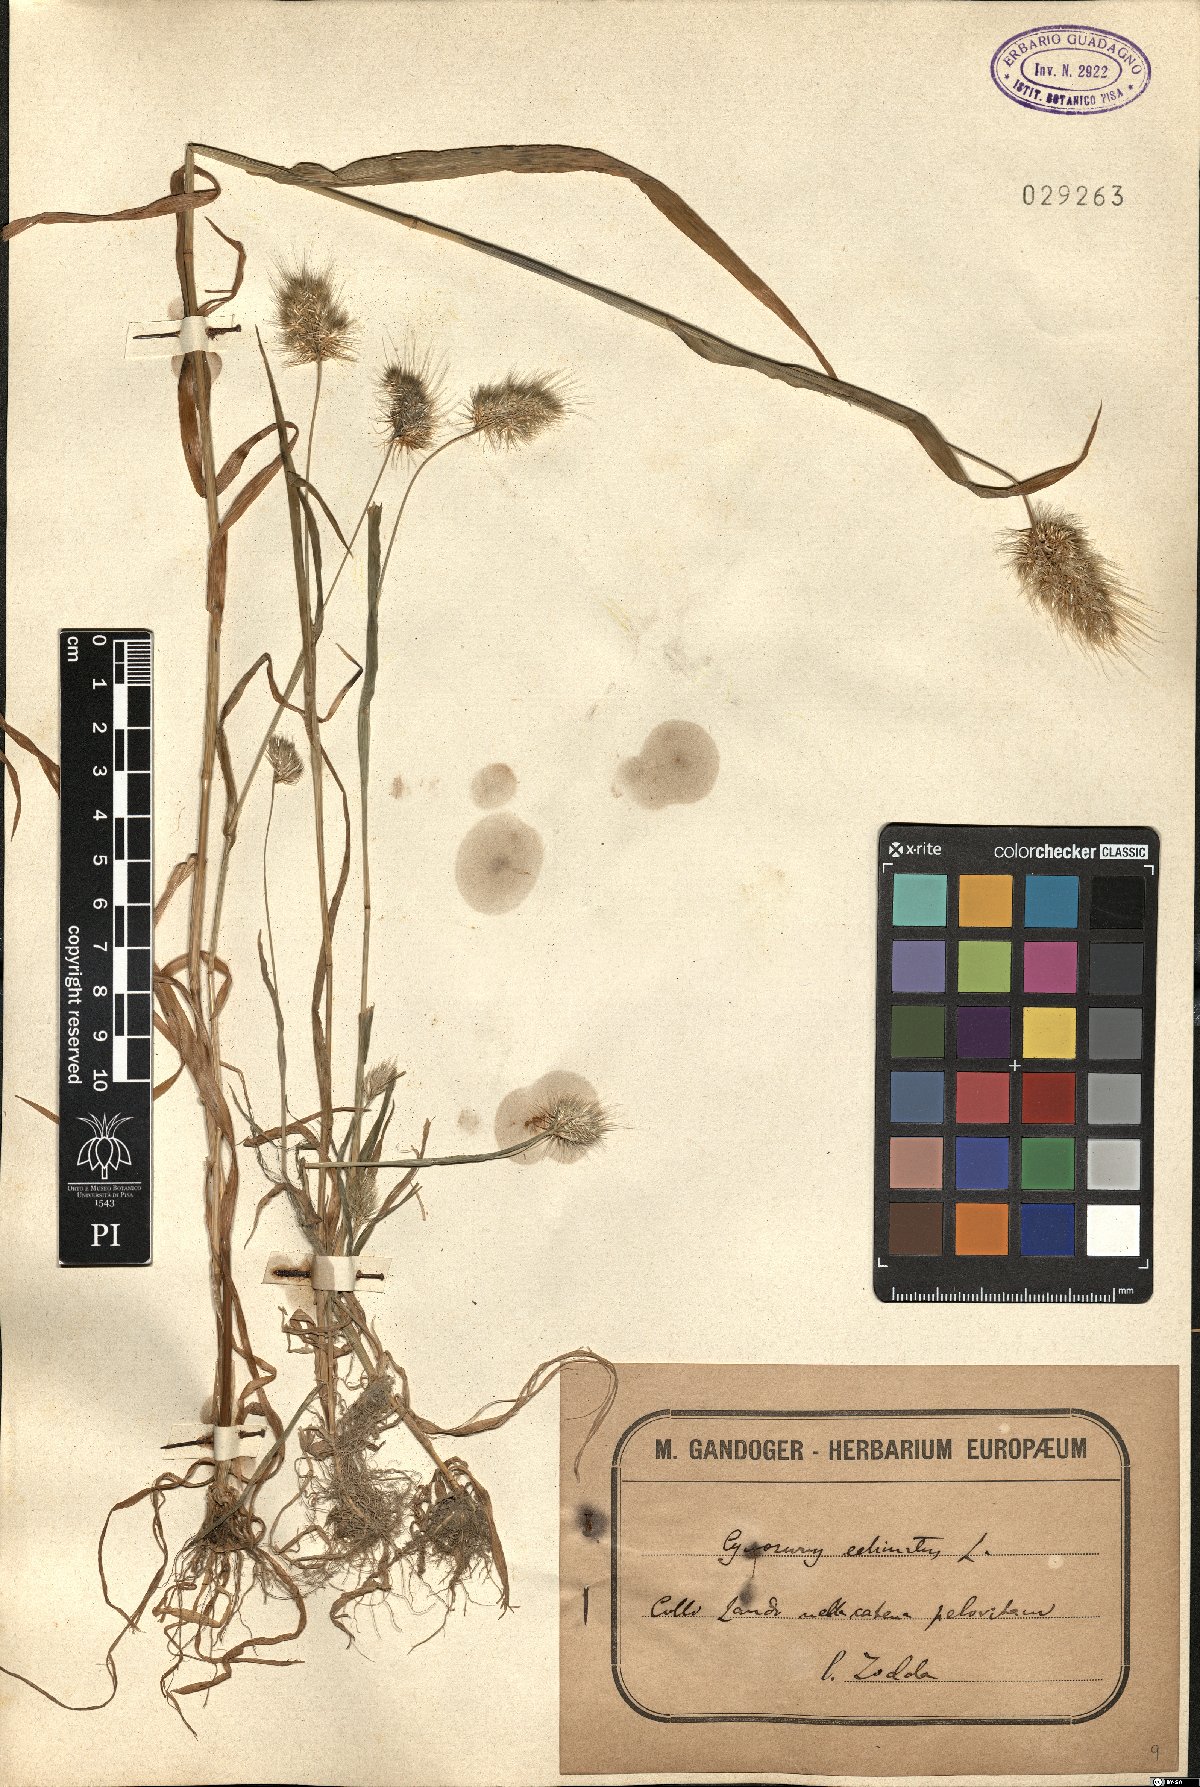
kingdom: Plantae
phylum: Tracheophyta
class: Liliopsida
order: Poales
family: Poaceae
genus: Cynosurus
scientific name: Cynosurus echinatus
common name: Rough dog's-tail
